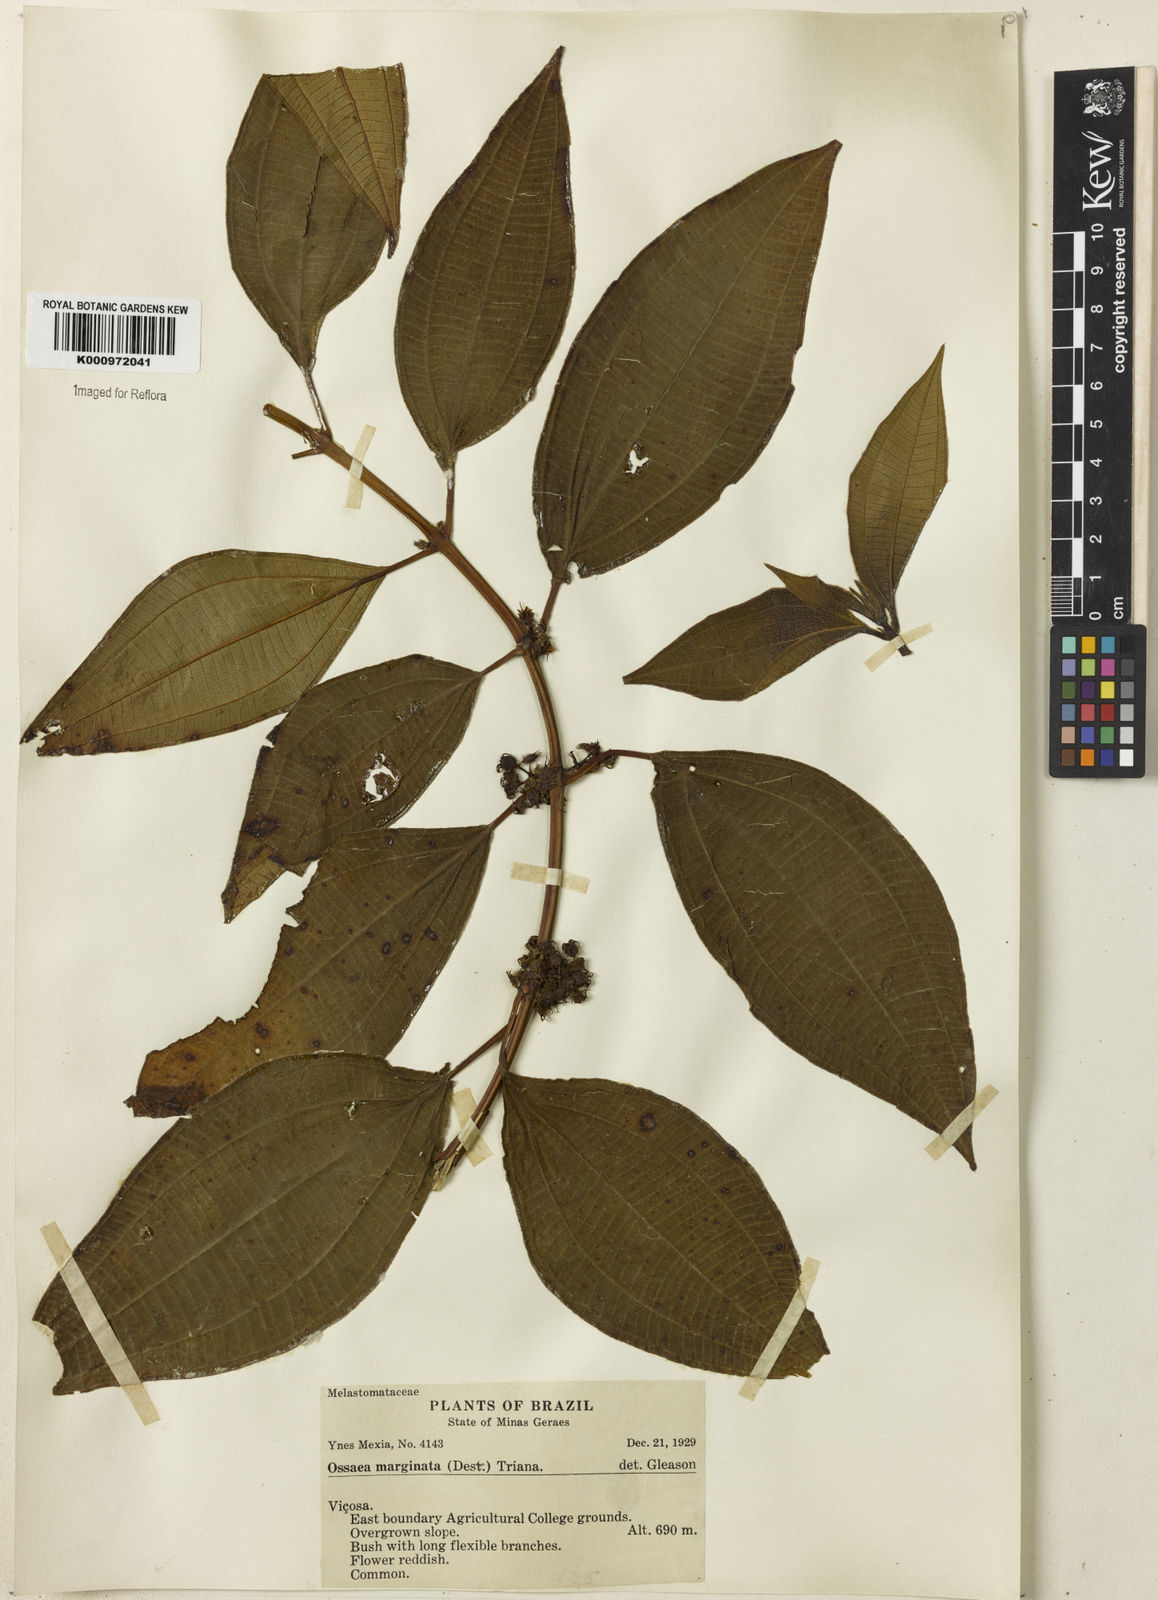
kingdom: Plantae
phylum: Tracheophyta
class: Magnoliopsida
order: Myrtales
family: Melastomataceae
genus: Miconia
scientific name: Miconia leamarginata
